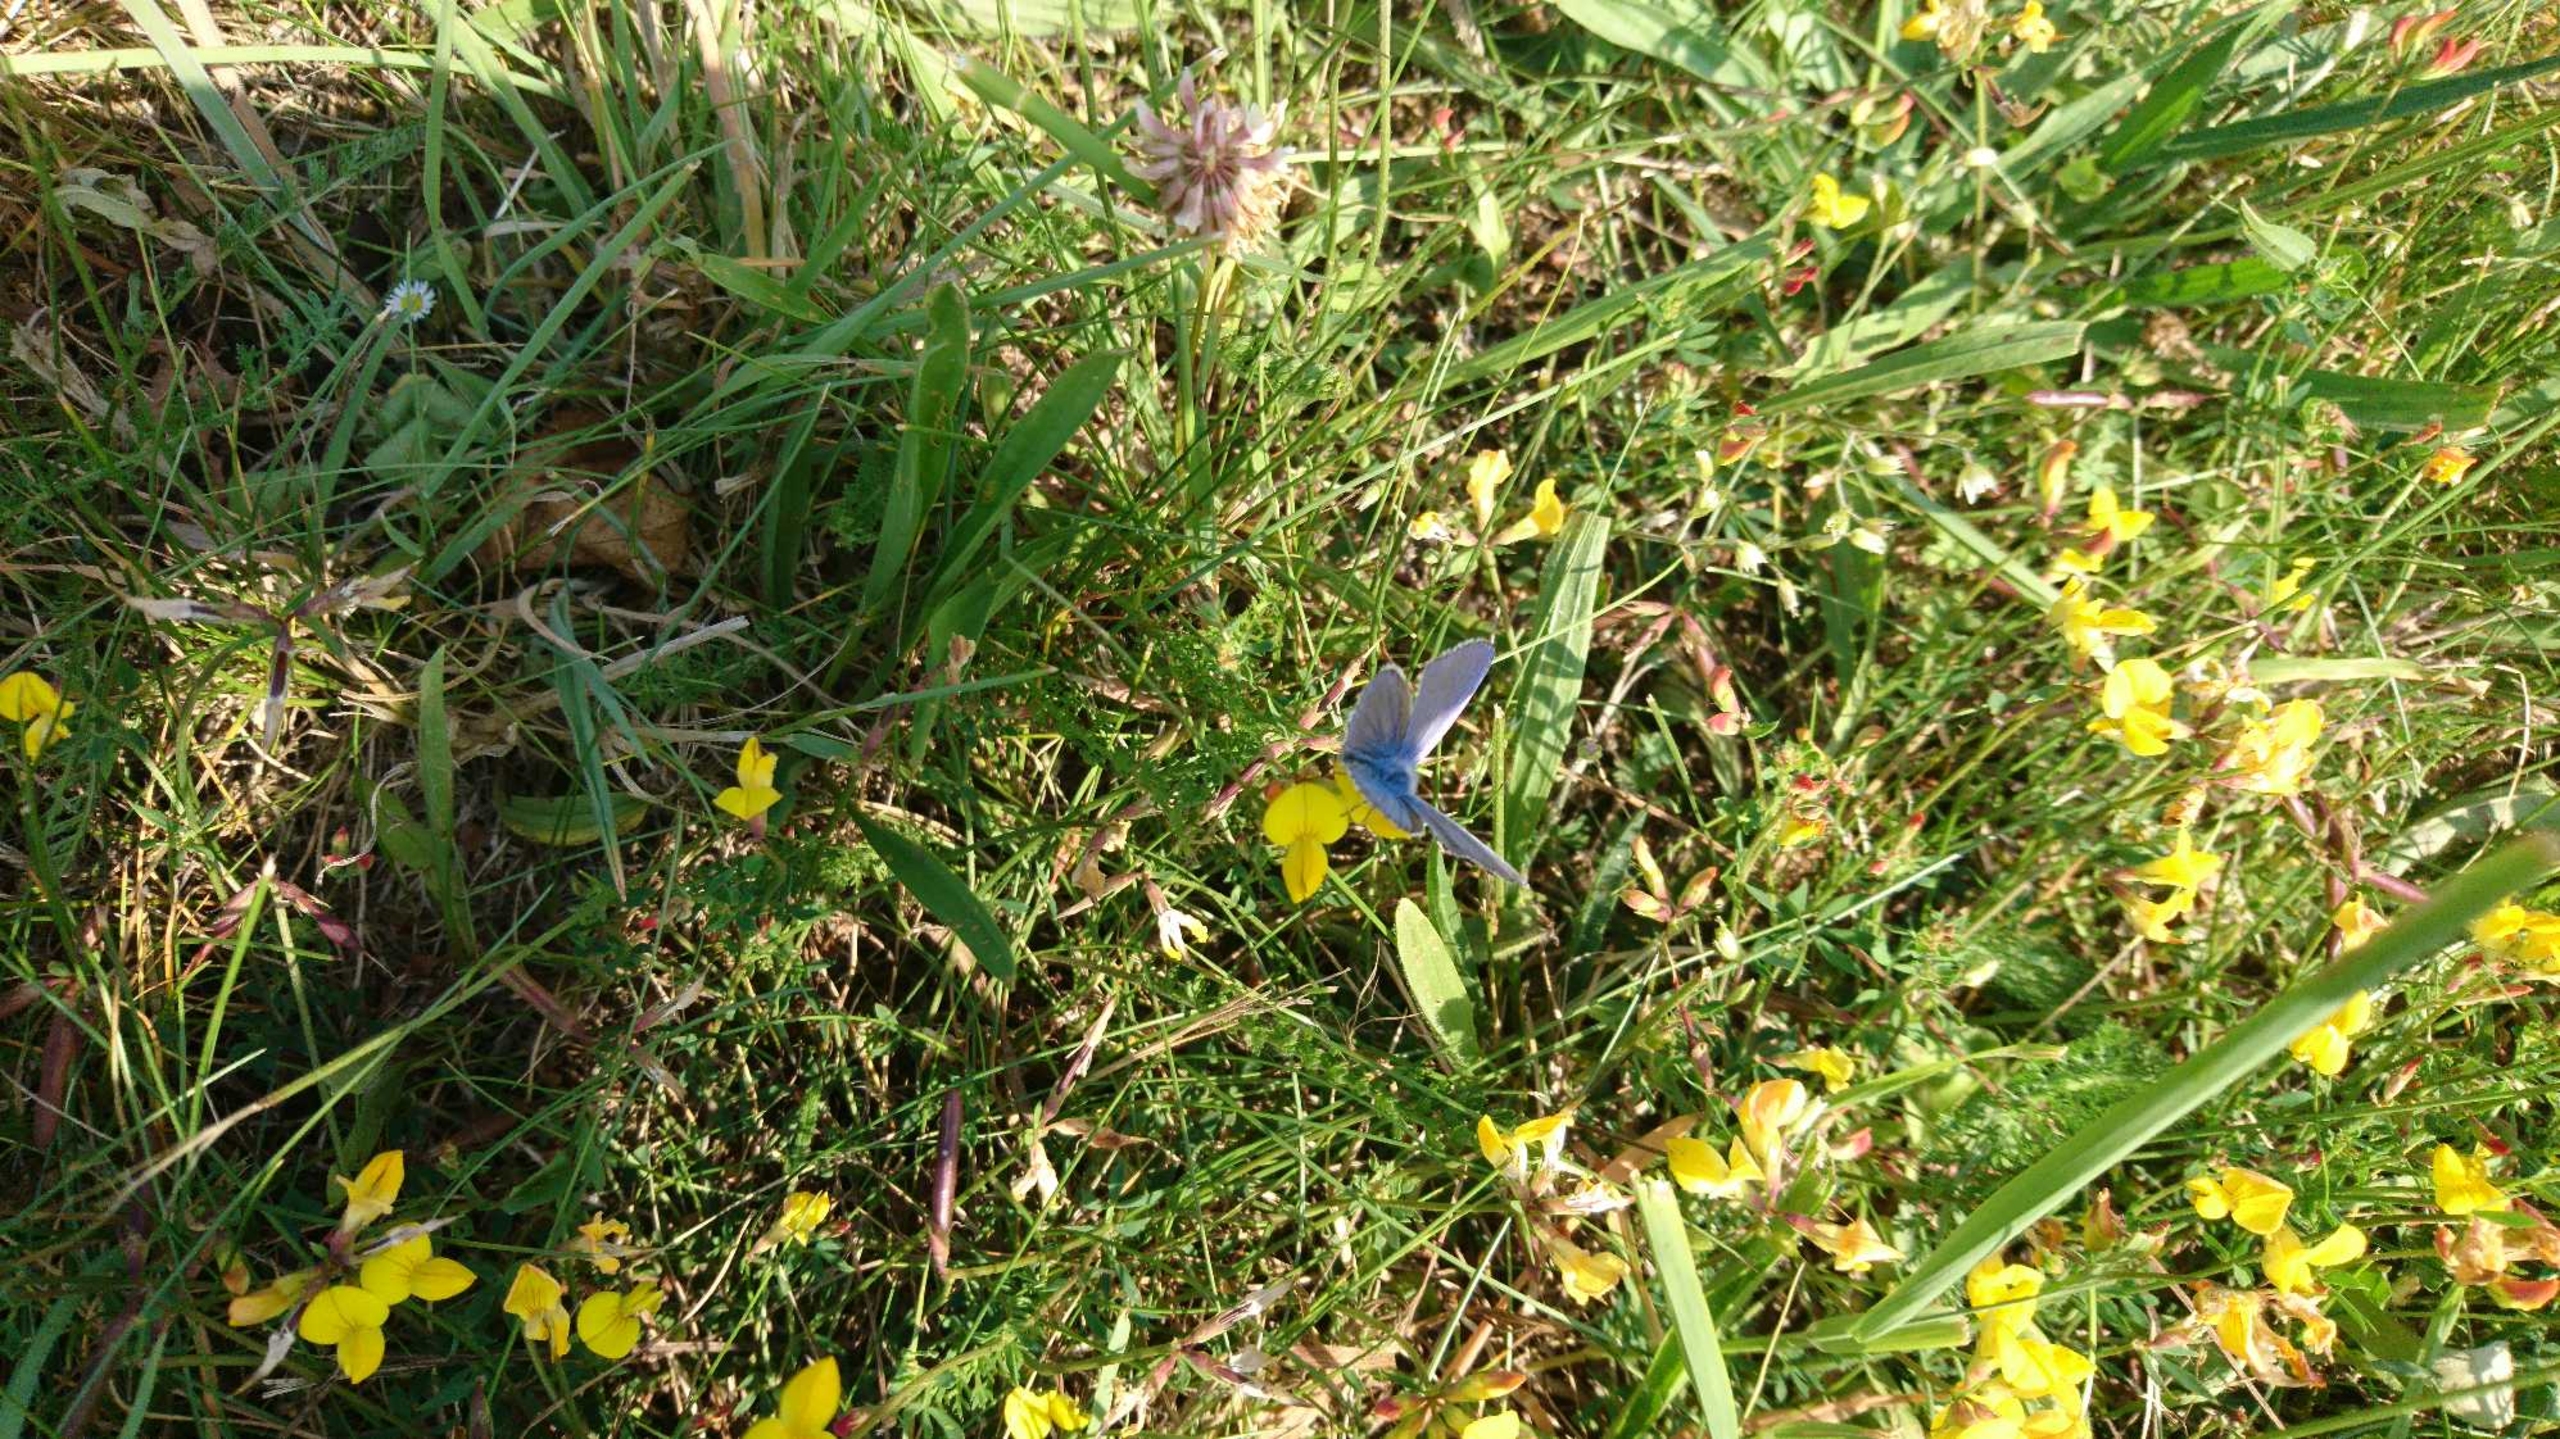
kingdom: Animalia
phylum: Arthropoda
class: Insecta
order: Lepidoptera
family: Lycaenidae
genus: Polyommatus
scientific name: Polyommatus icarus
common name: Almindelig blåfugl
